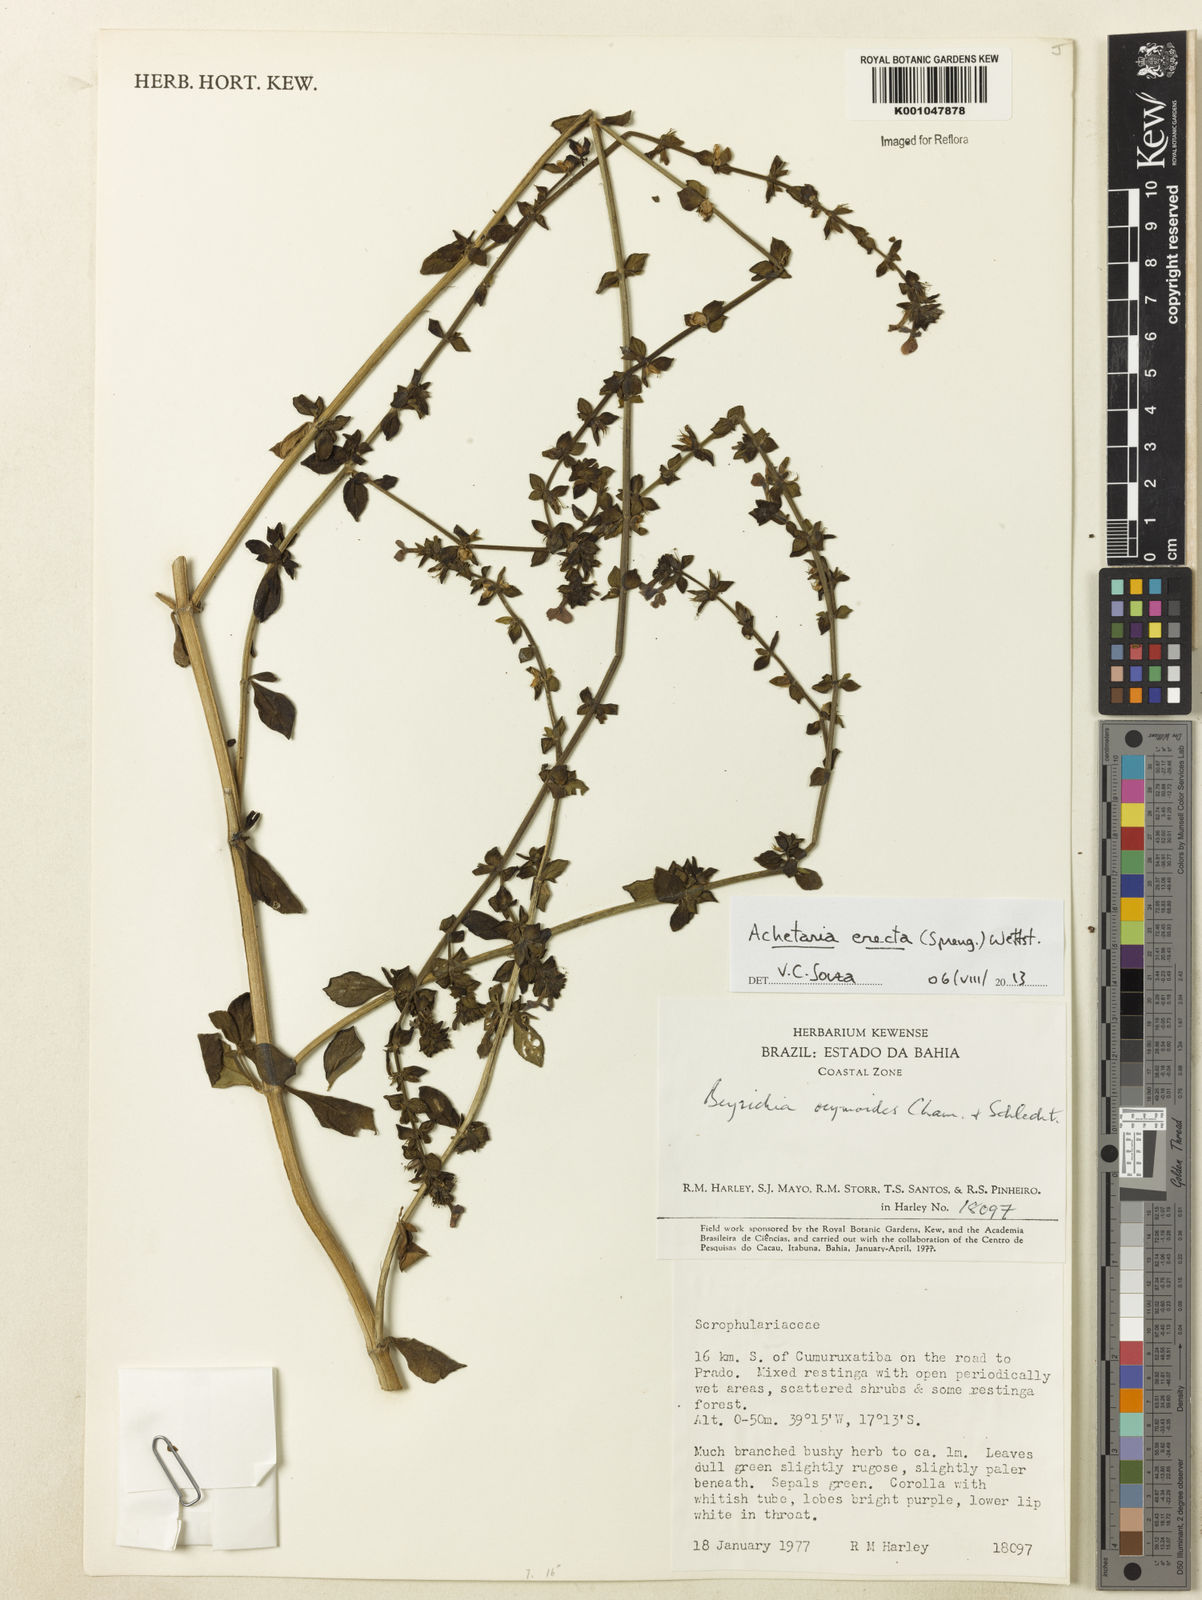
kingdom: Plantae
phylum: Tracheophyta
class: Magnoliopsida
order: Lamiales
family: Plantaginaceae
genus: Matourea
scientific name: Matourea erecta
